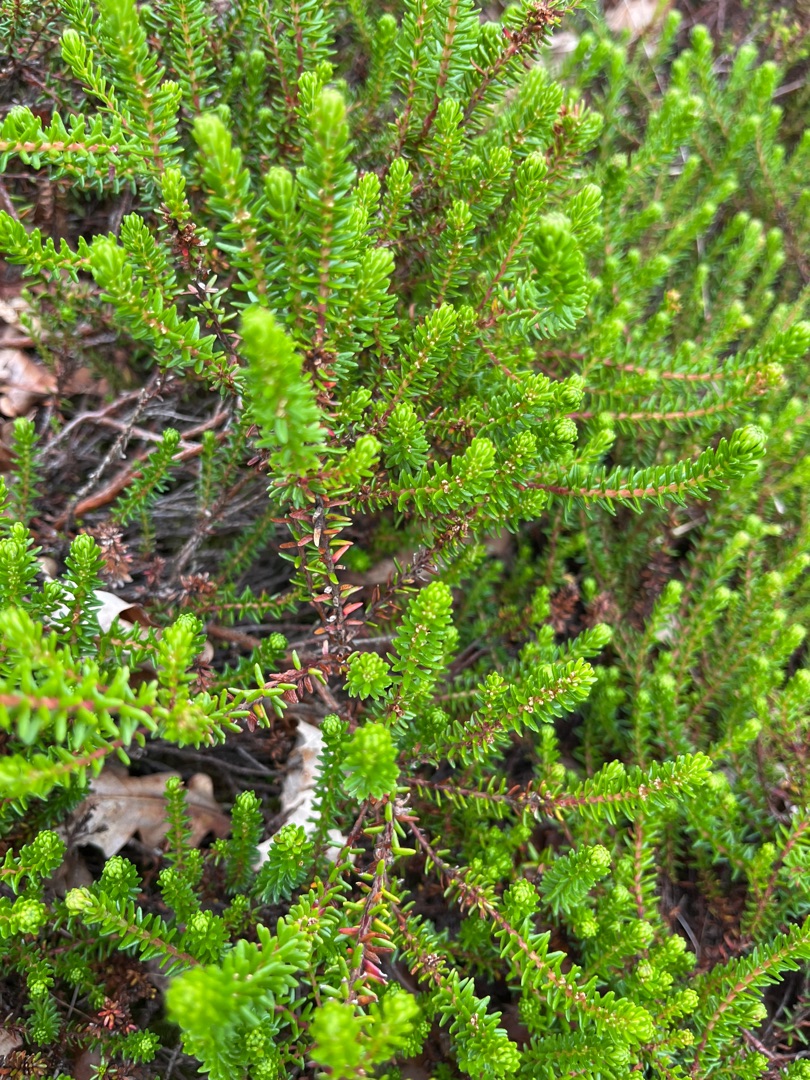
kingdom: Plantae
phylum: Tracheophyta
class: Magnoliopsida
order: Ericales
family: Ericaceae
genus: Empetrum
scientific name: Empetrum nigrum
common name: Revling
